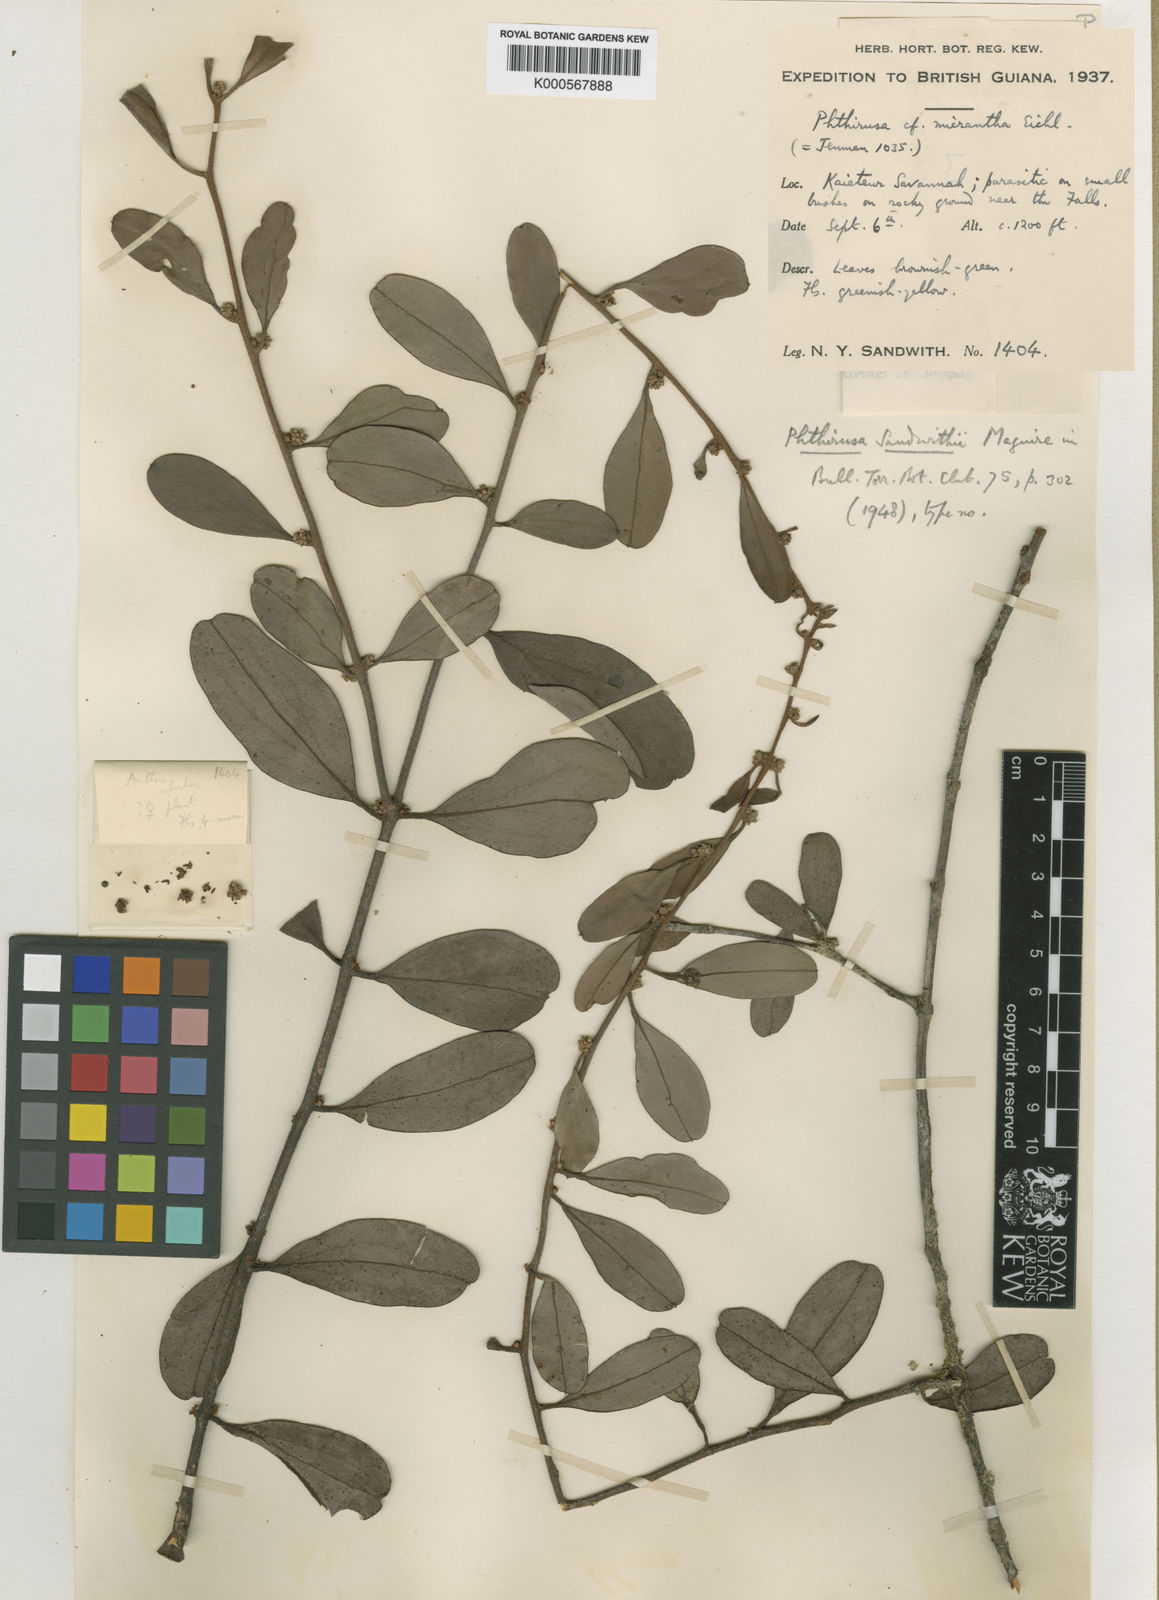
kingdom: Plantae
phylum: Tracheophyta
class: Magnoliopsida
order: Santalales
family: Loranthaceae
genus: Cladocolea
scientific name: Cladocolea sandwithii
